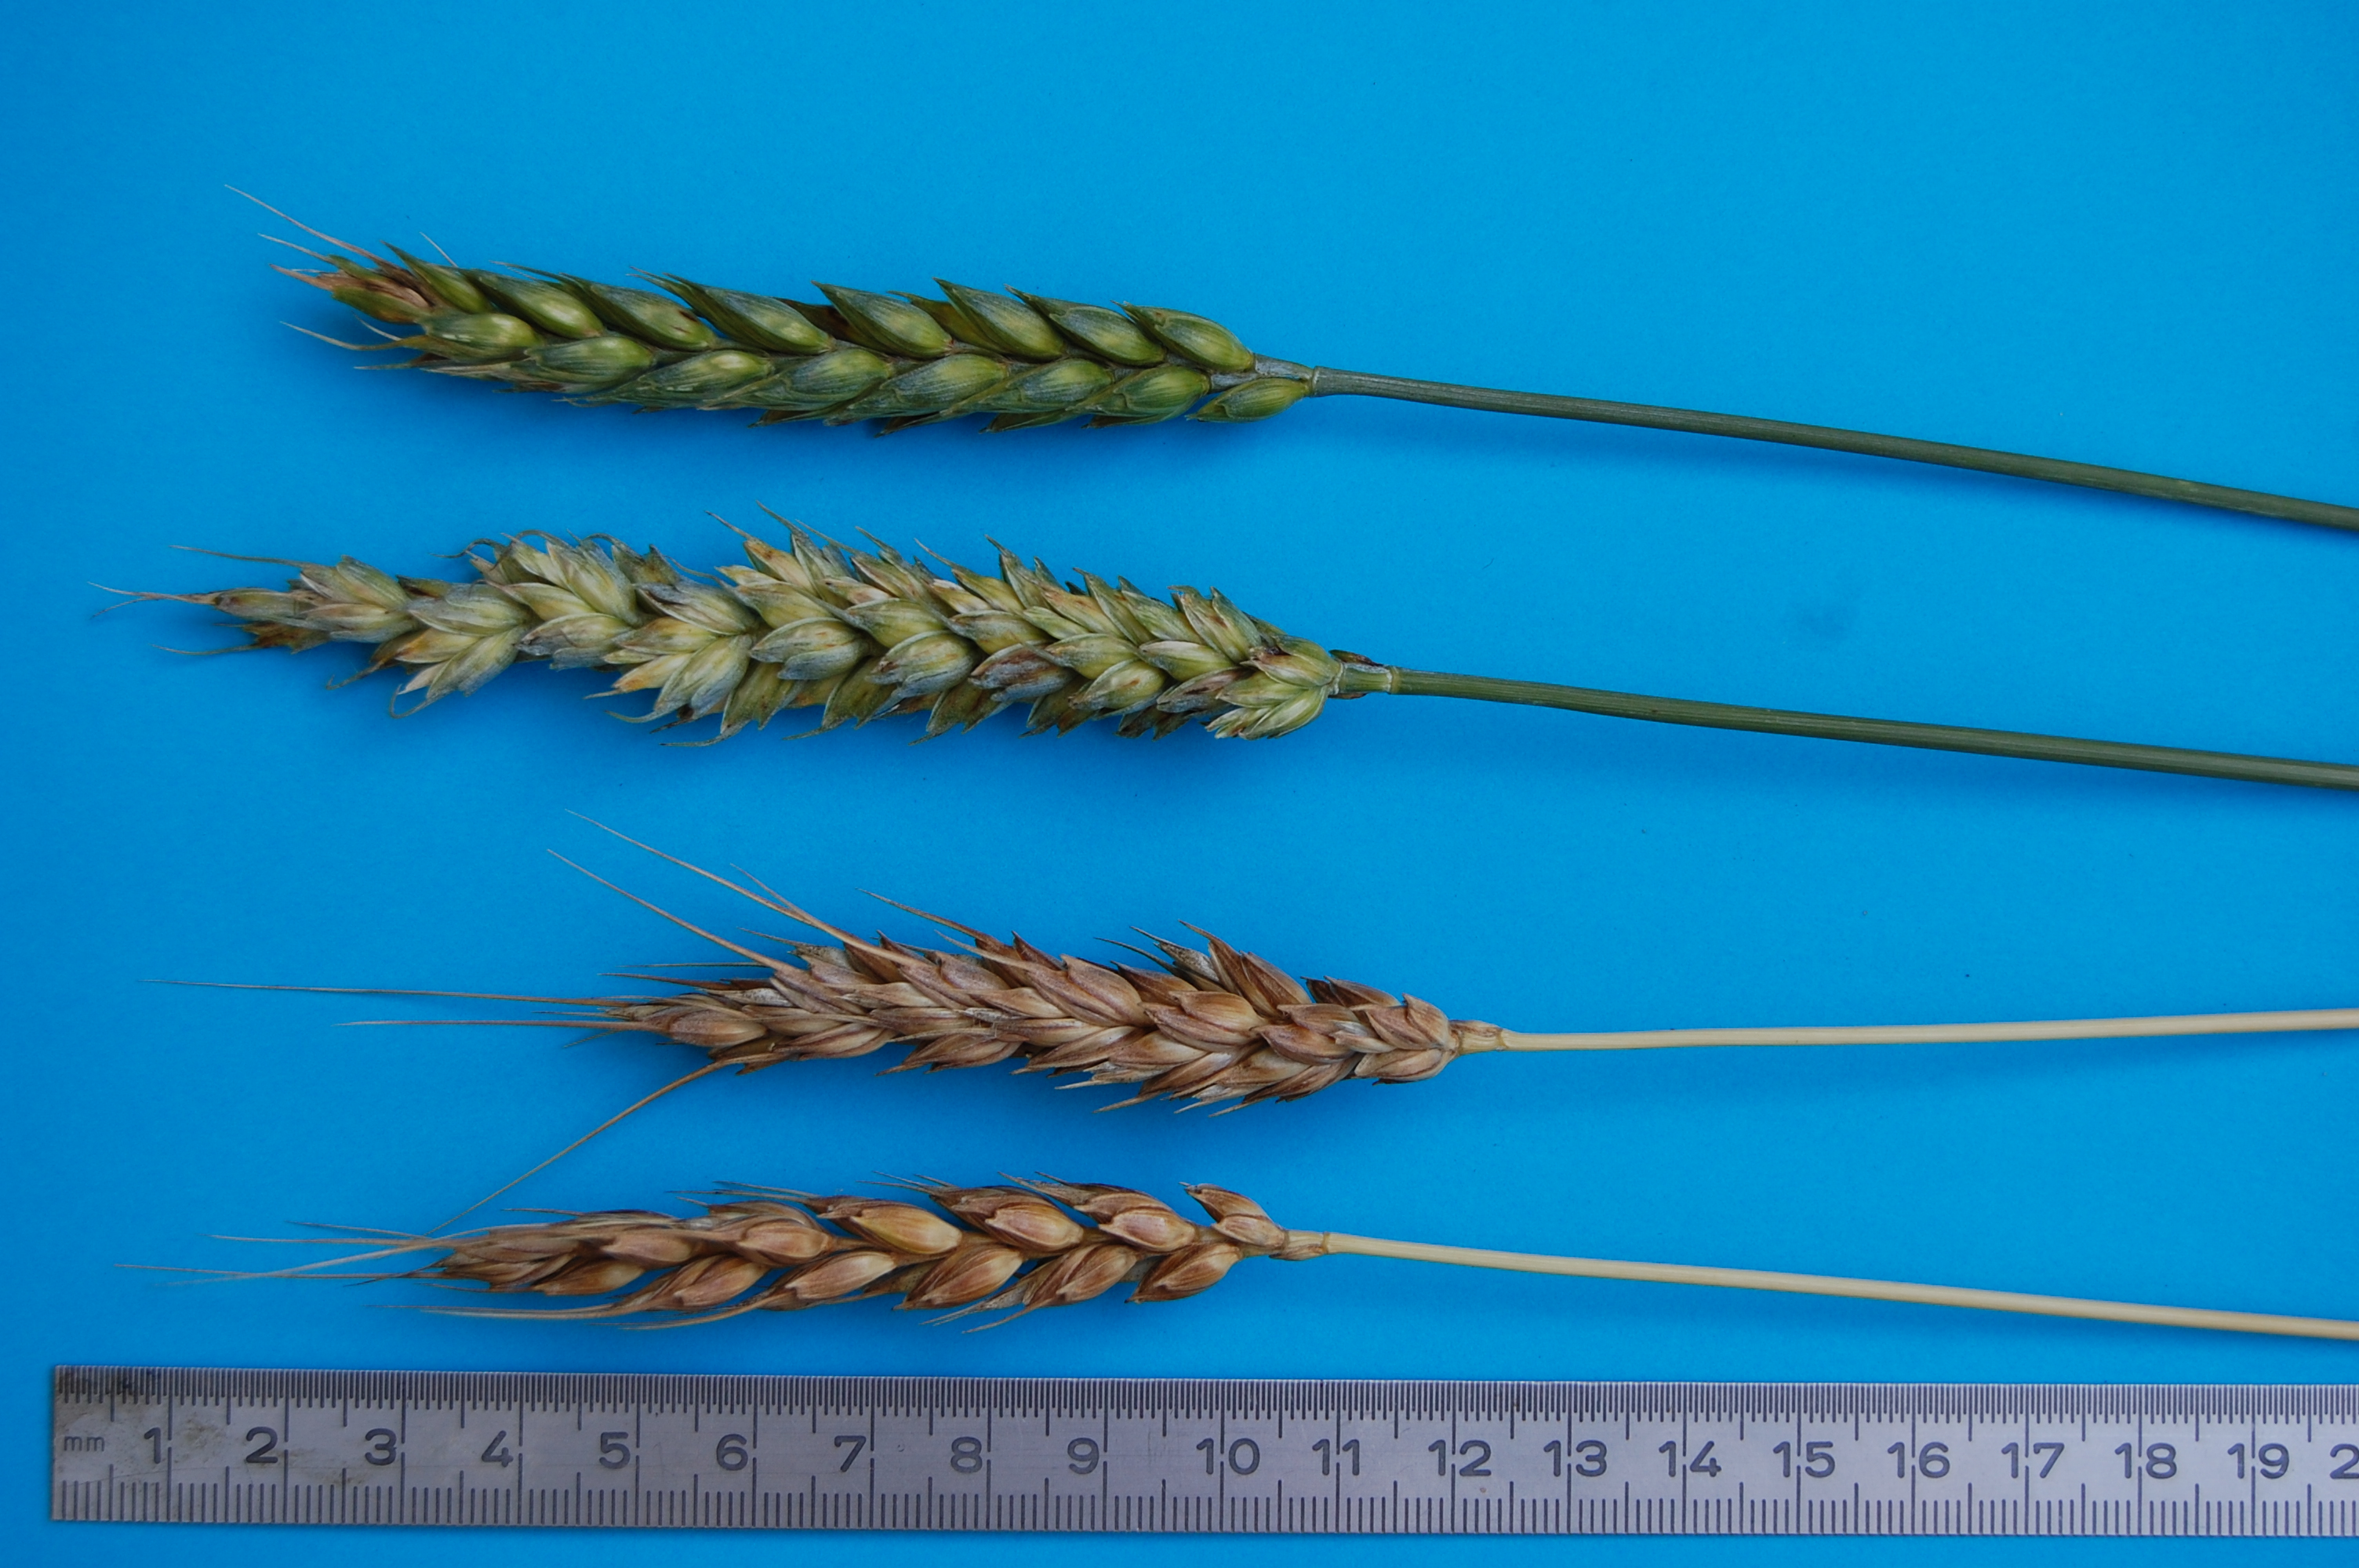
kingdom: Plantae
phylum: Tracheophyta
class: Liliopsida
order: Poales
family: Poaceae
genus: Triticum
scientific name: Triticum aestivum
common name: Common wheat
